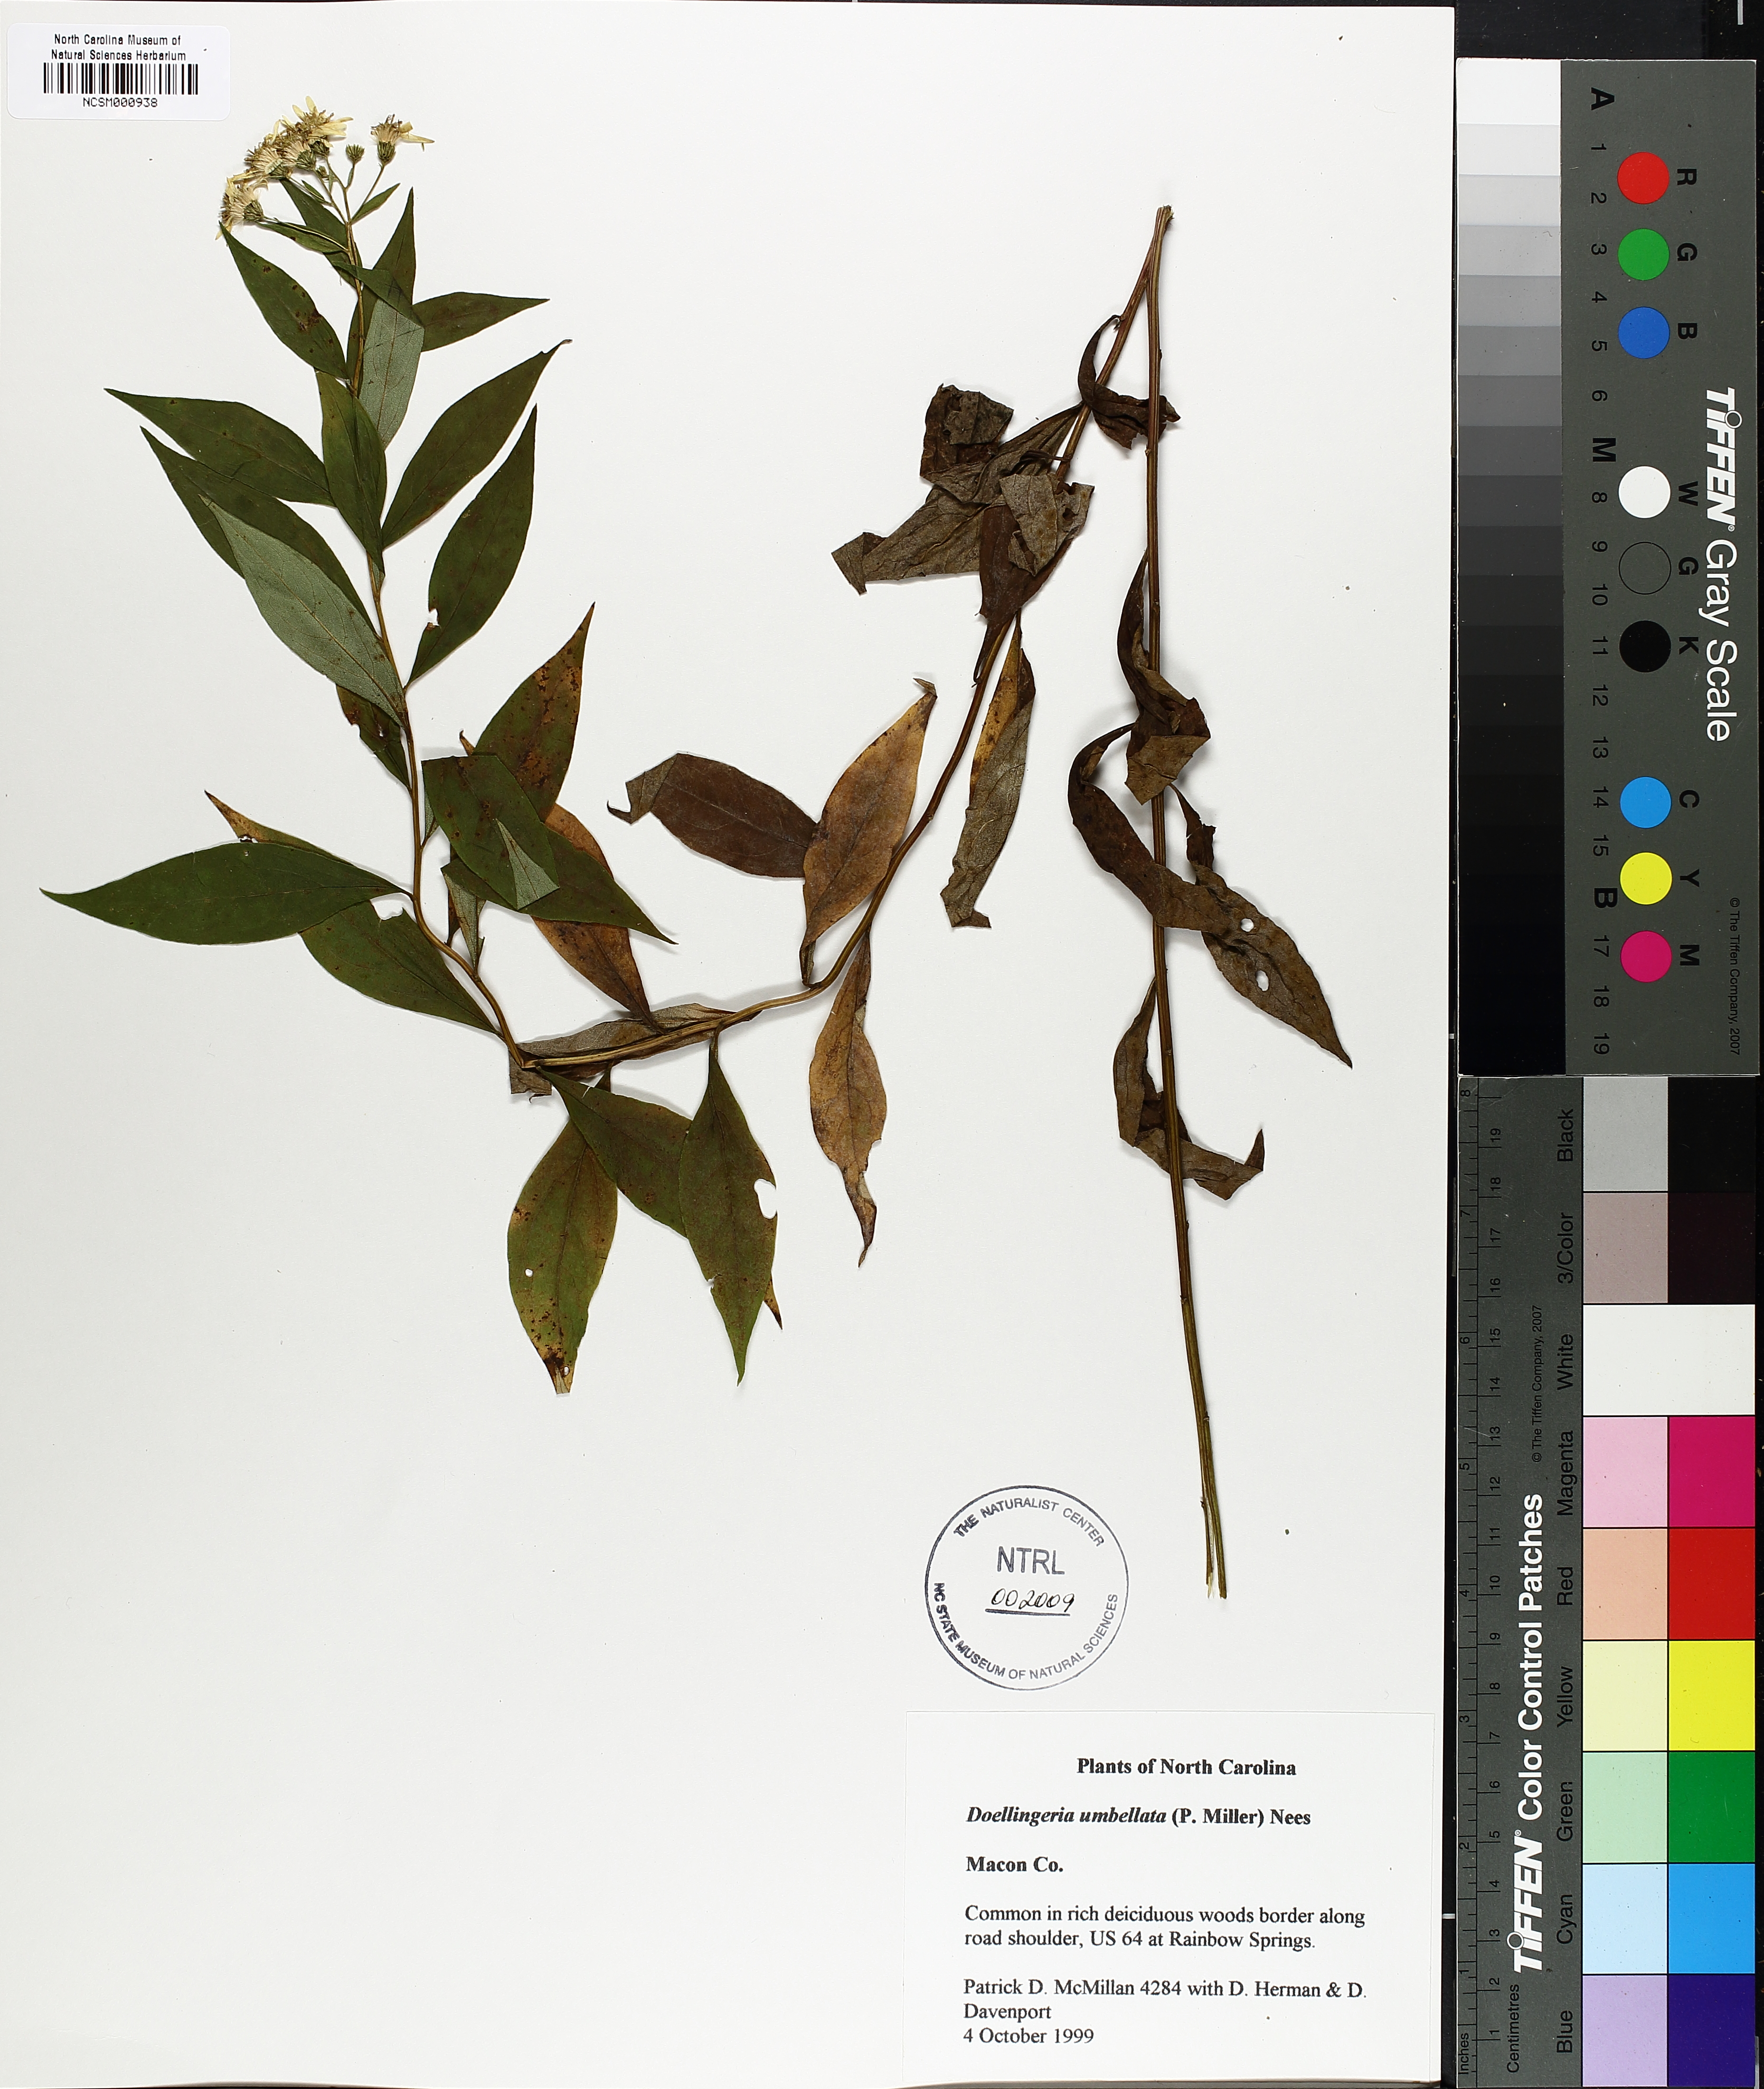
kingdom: Plantae
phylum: Tracheophyta
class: Magnoliopsida
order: Asterales
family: Asteraceae
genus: Doellingeria
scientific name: Doellingeria umbellata
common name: Flat-top white aster
